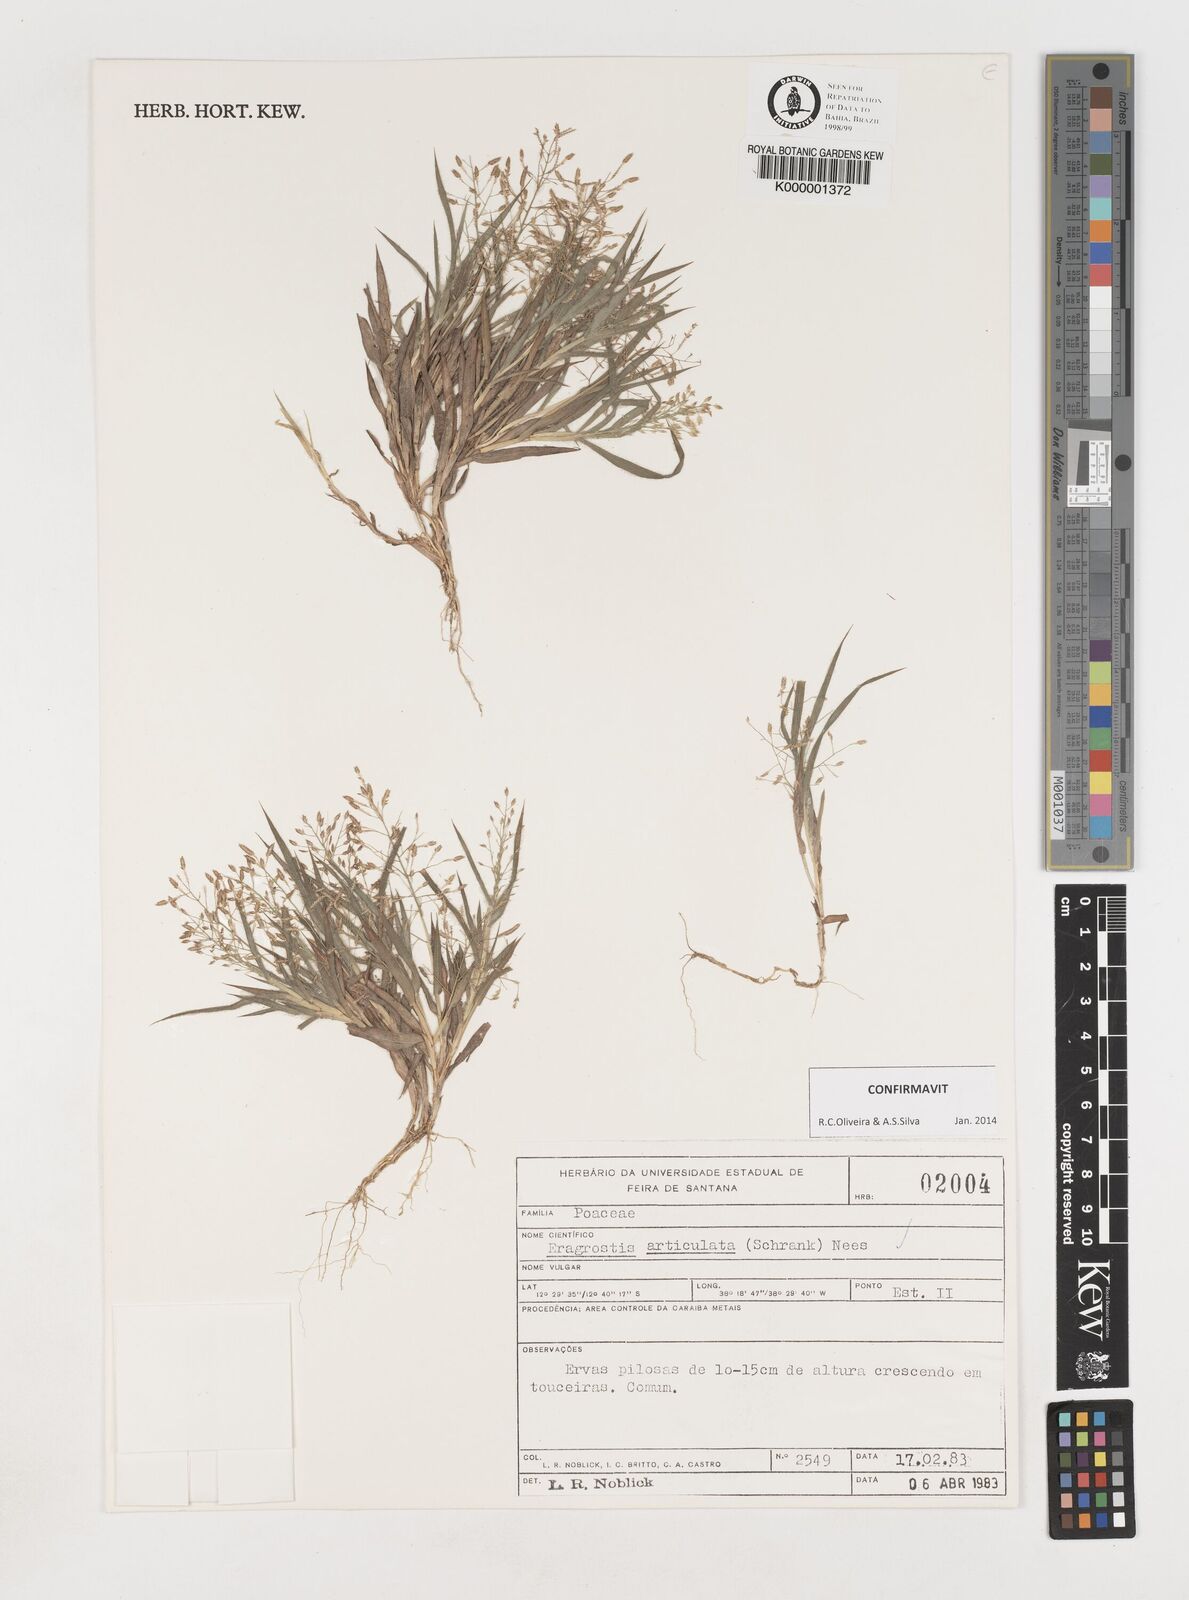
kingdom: Plantae
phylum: Tracheophyta
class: Liliopsida
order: Poales
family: Poaceae
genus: Eragrostis
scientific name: Eragrostis articulata
